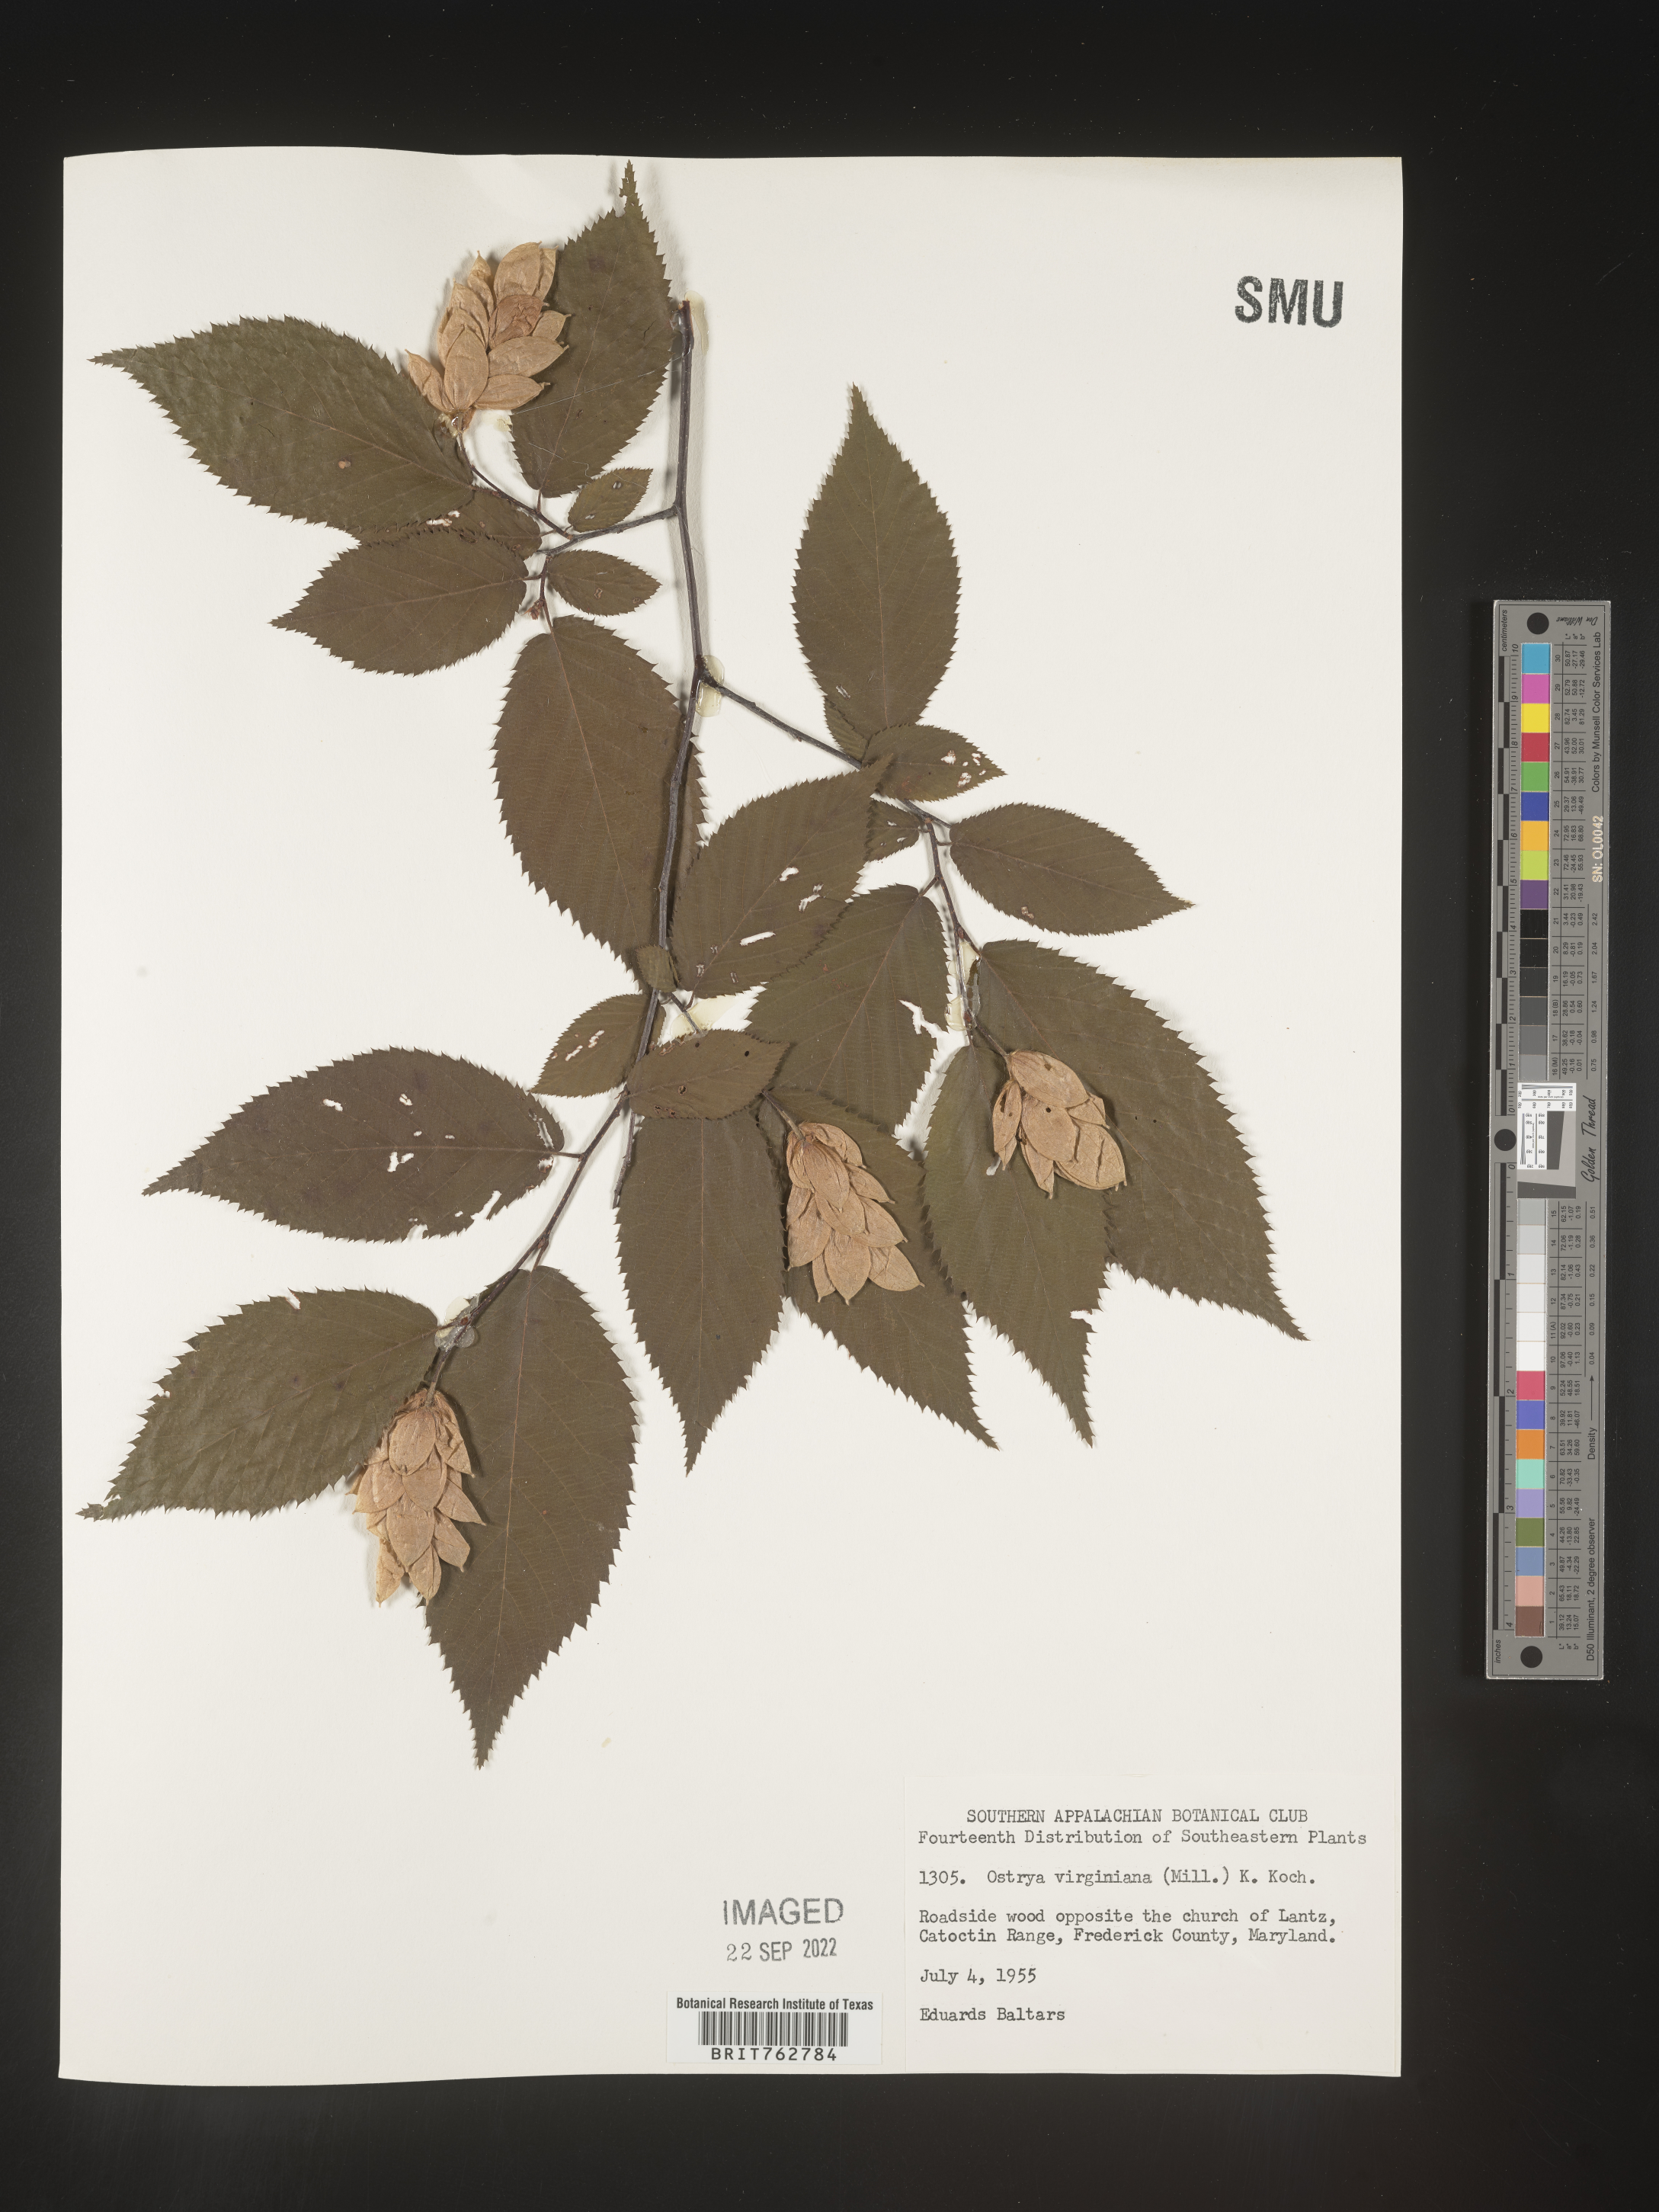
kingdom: Plantae
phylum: Tracheophyta
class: Magnoliopsida
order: Fagales
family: Betulaceae
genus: Ostrya
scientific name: Ostrya virginiana
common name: Ironwood
